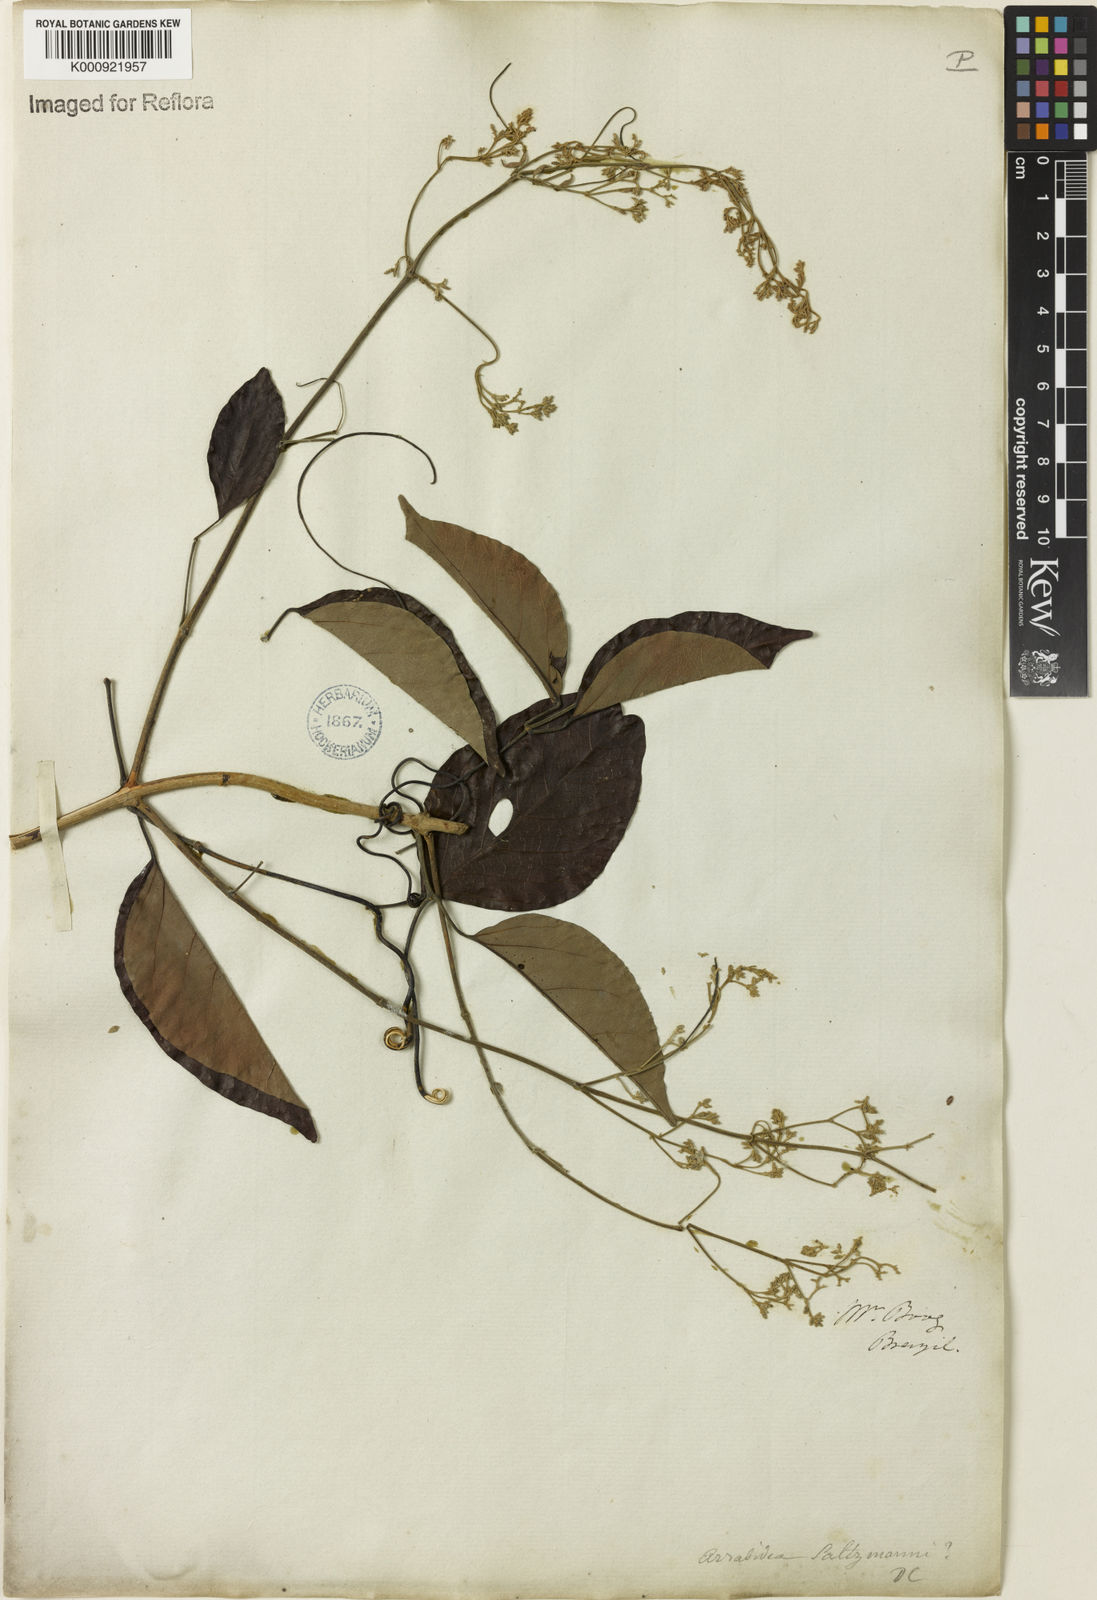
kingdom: Plantae
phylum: Tracheophyta
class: Magnoliopsida
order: Lamiales
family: Bignoniaceae
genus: Fridericia
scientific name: Fridericia rego
